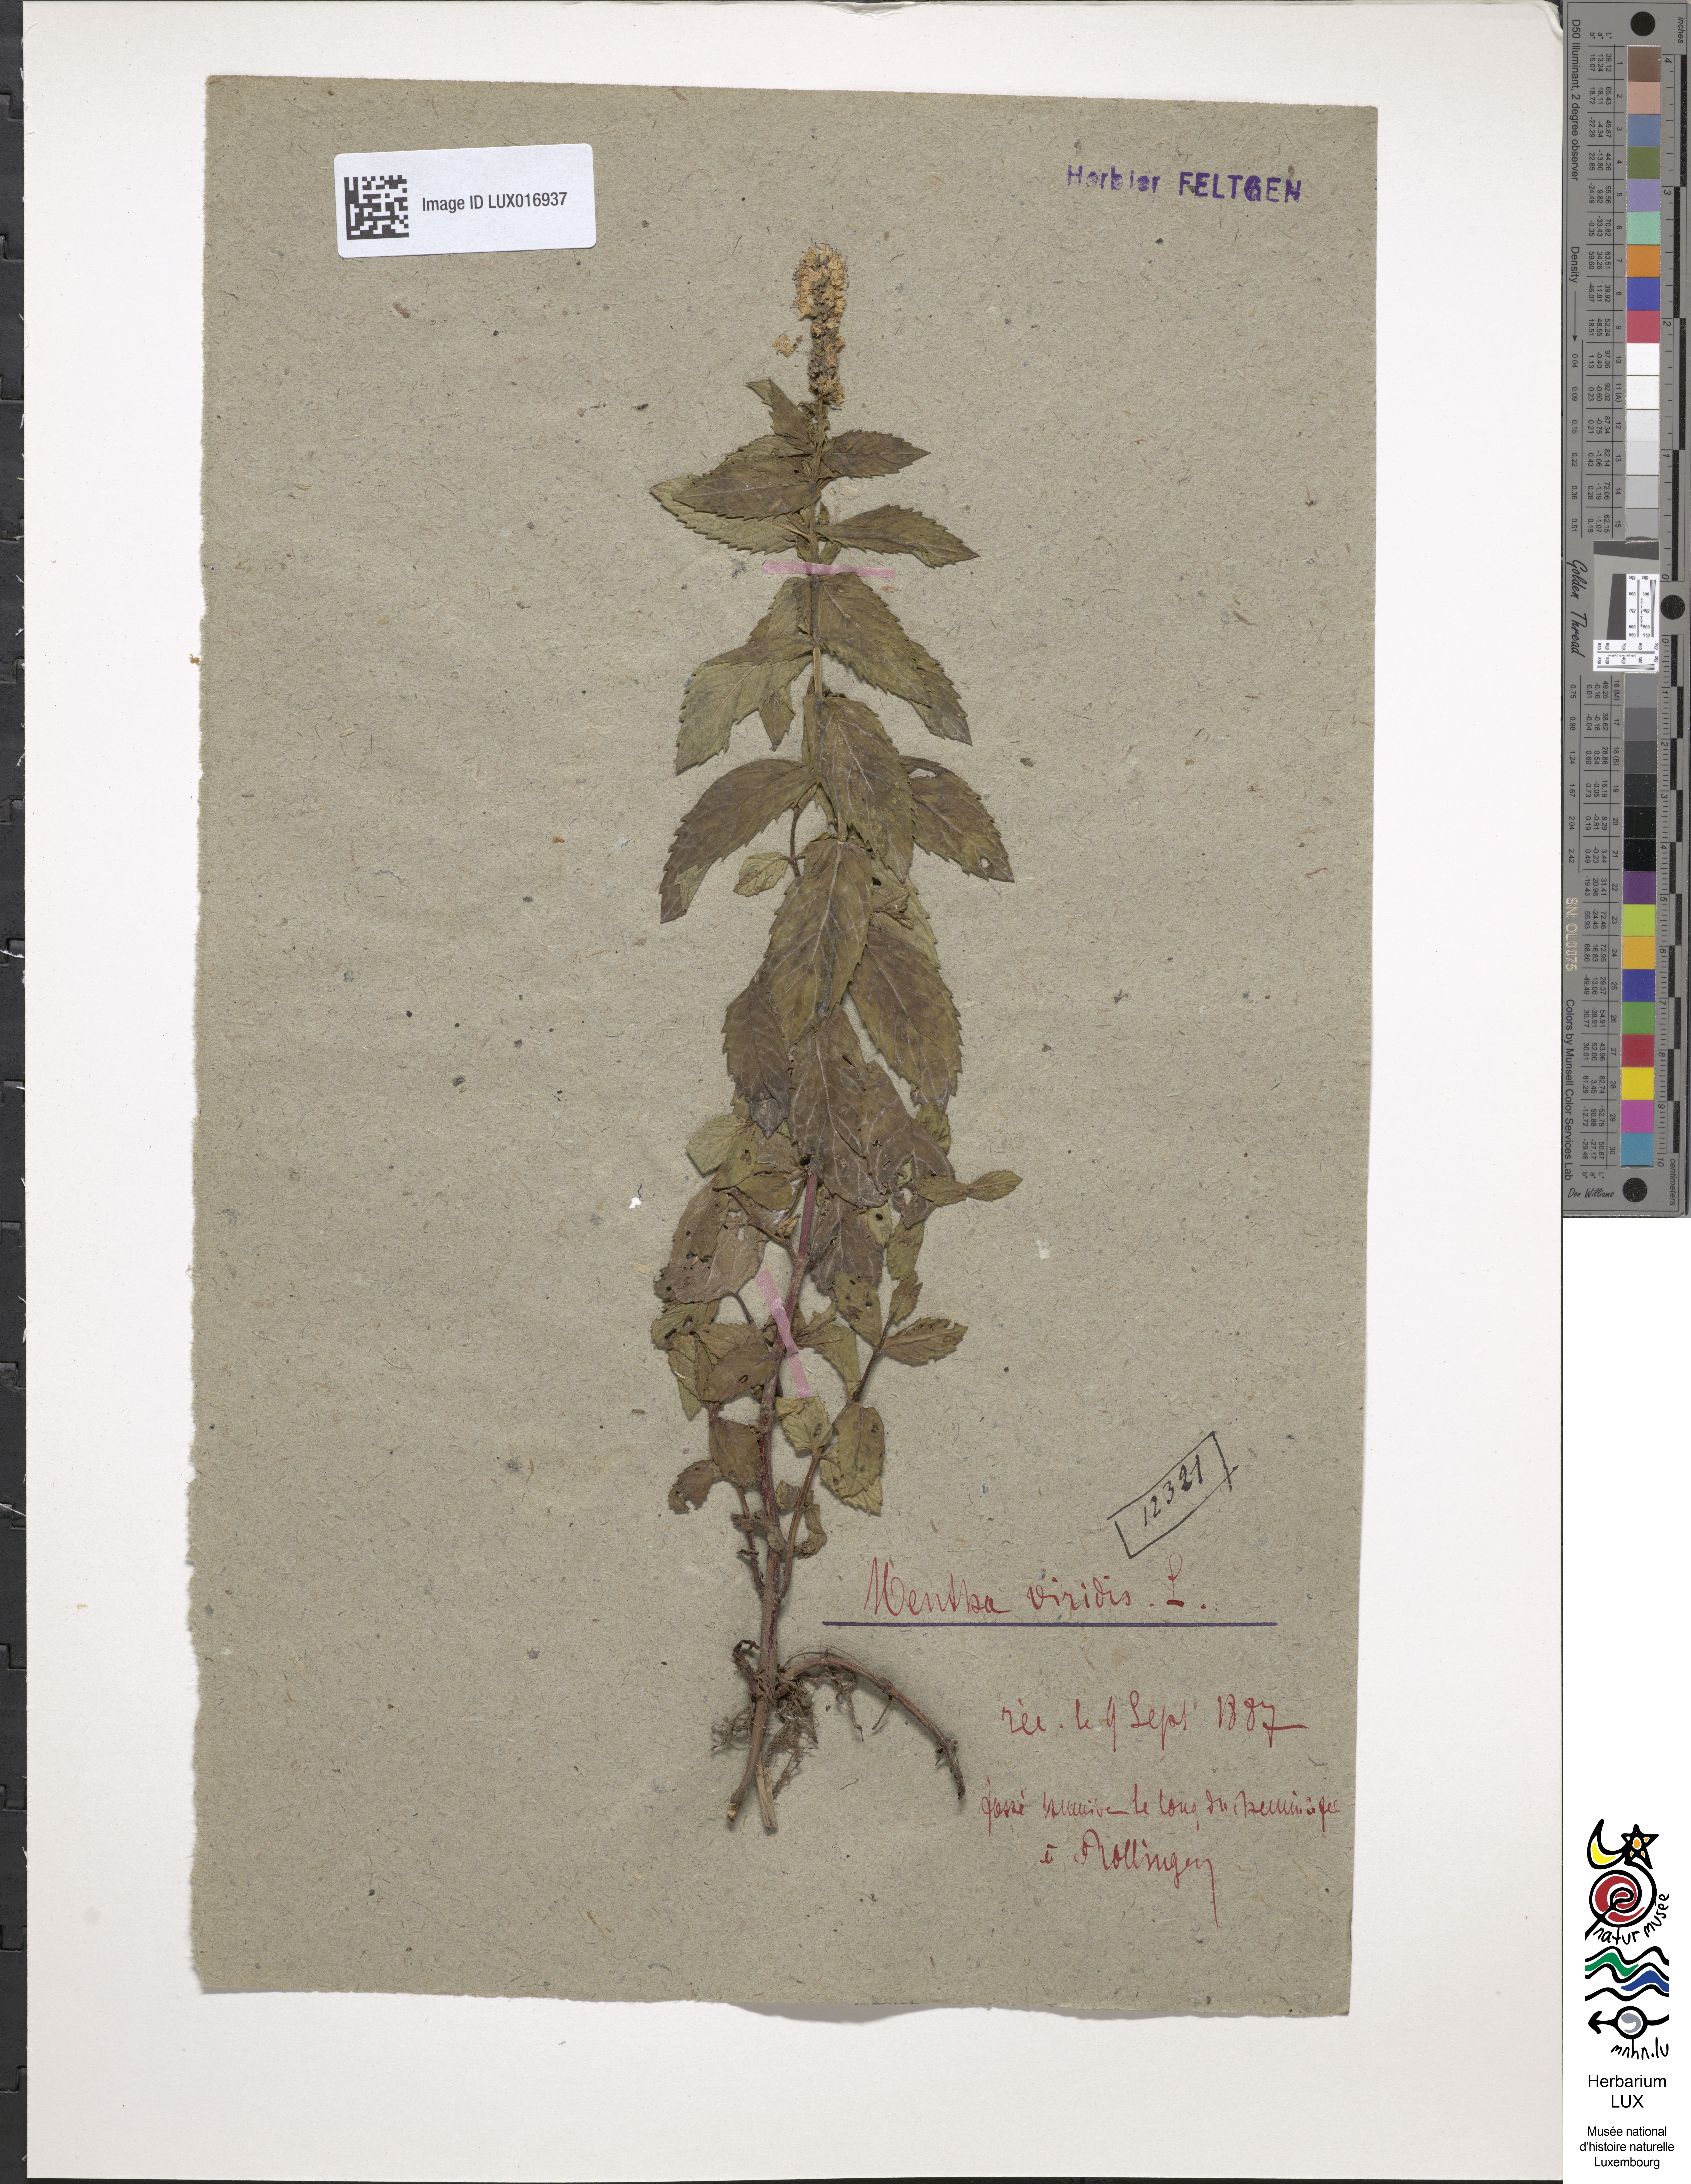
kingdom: Plantae
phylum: Tracheophyta
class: Magnoliopsida
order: Lamiales
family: Lamiaceae
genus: Mentha
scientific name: Mentha spicata
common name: Spearmint
